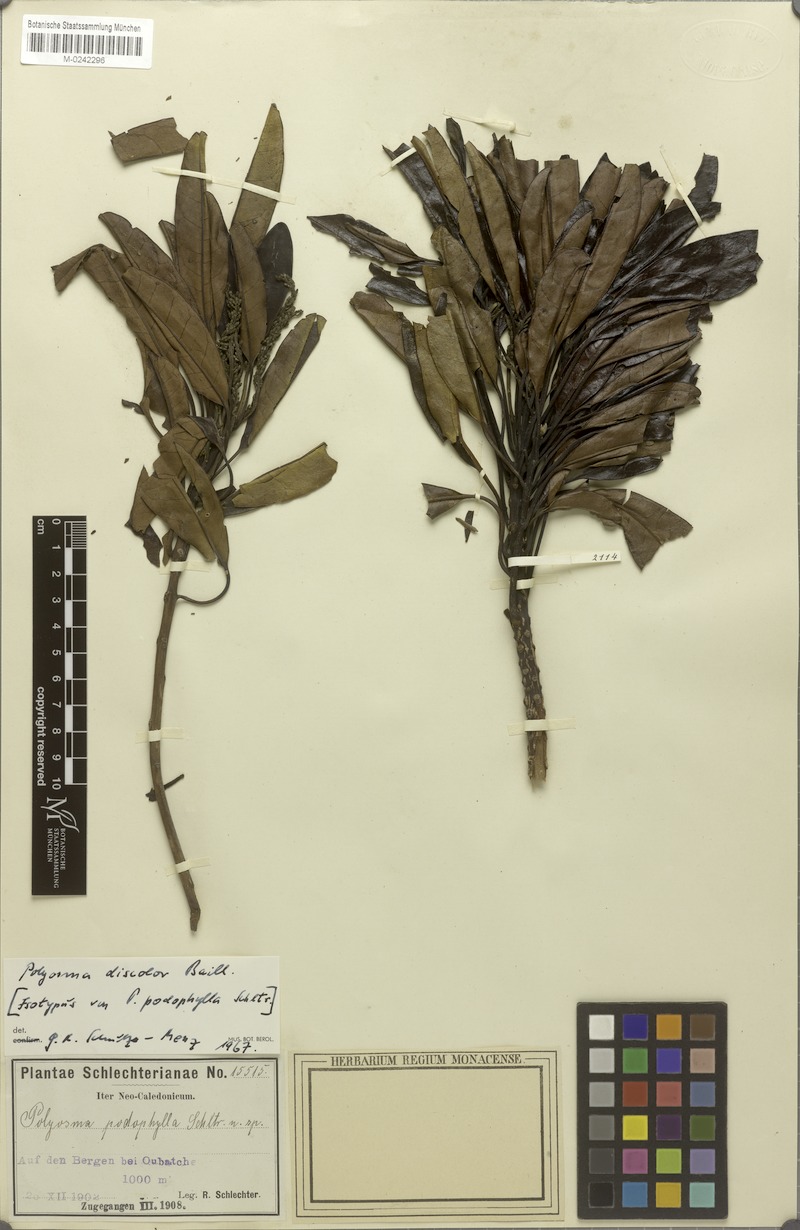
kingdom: Plantae
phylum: Tracheophyta
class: Magnoliopsida
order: Escalloniales
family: Escalloniaceae
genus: Polyosma
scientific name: Polyosma discolor
